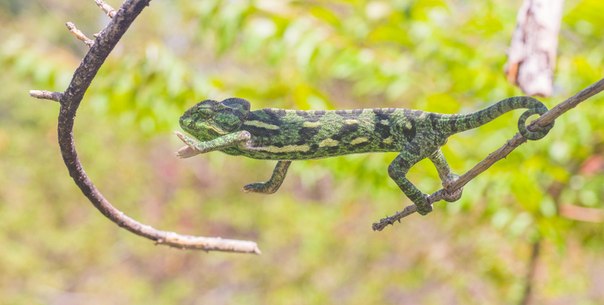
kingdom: Animalia
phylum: Chordata
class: Squamata
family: Chamaeleonidae
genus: Chamaeleo
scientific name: Chamaeleo chamaeleon
